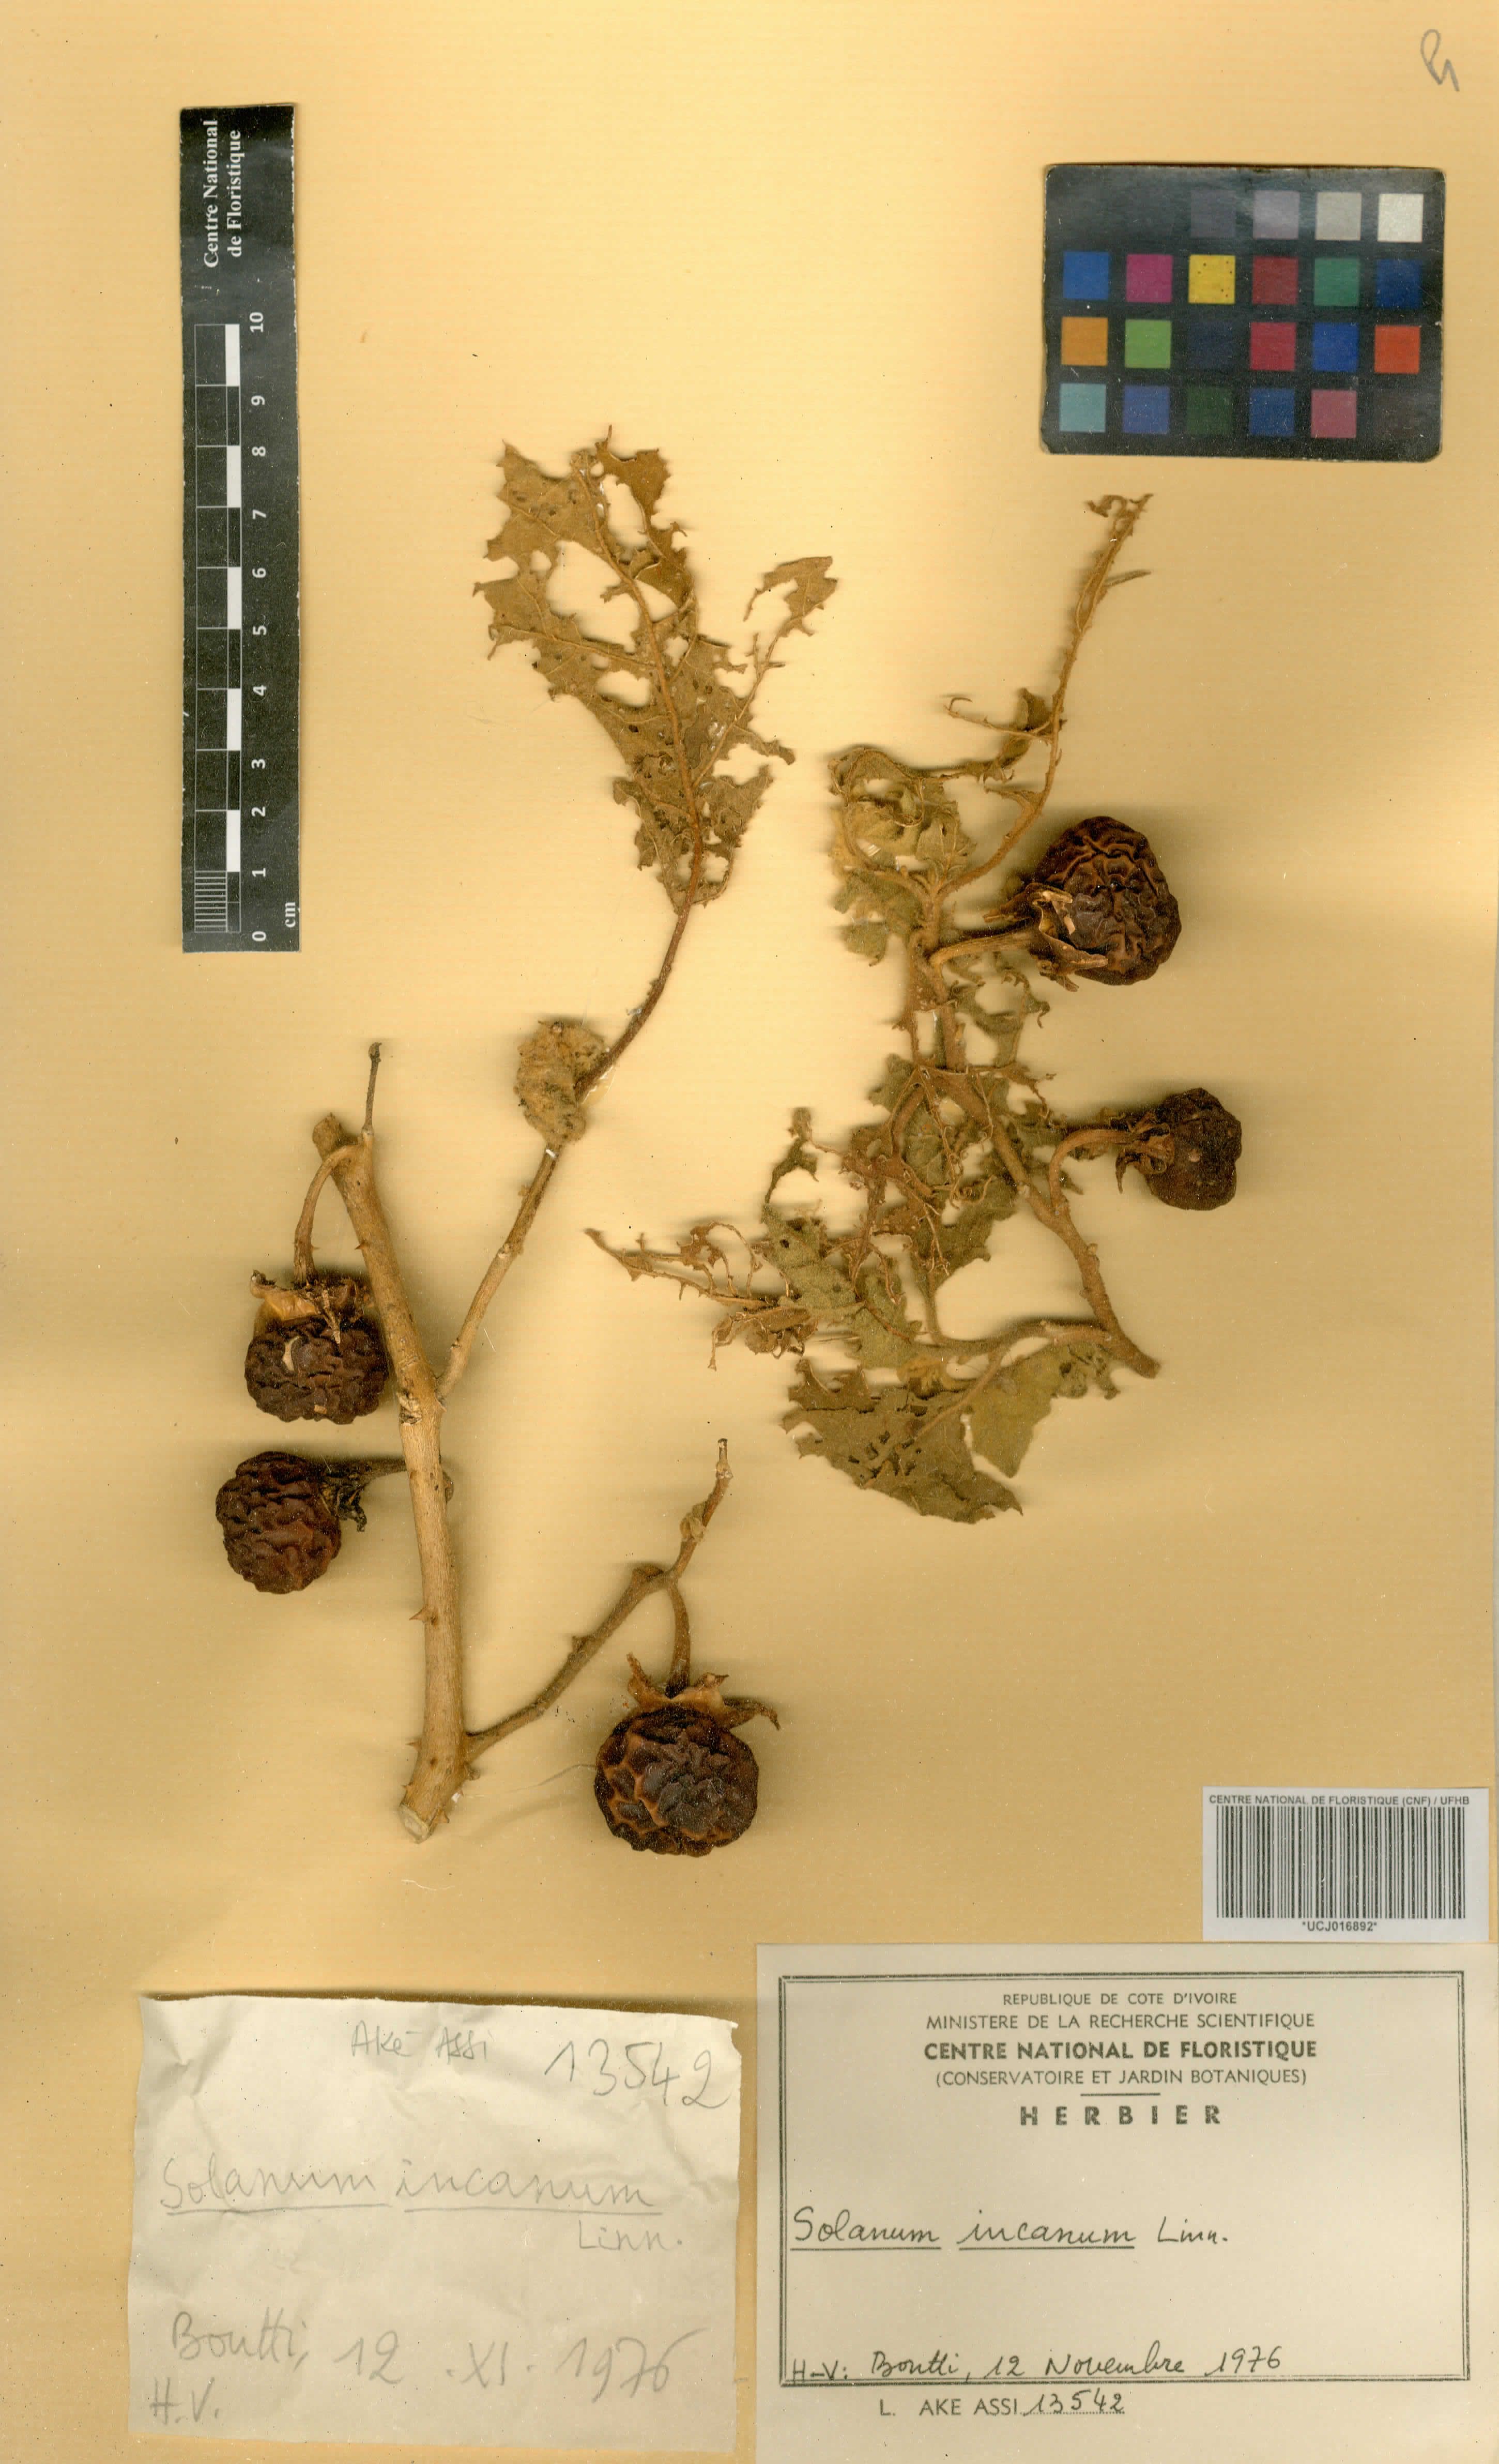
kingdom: Plantae
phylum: Tracheophyta
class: Magnoliopsida
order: Solanales
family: Solanaceae
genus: Solanum
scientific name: Solanum dasyphyllum
